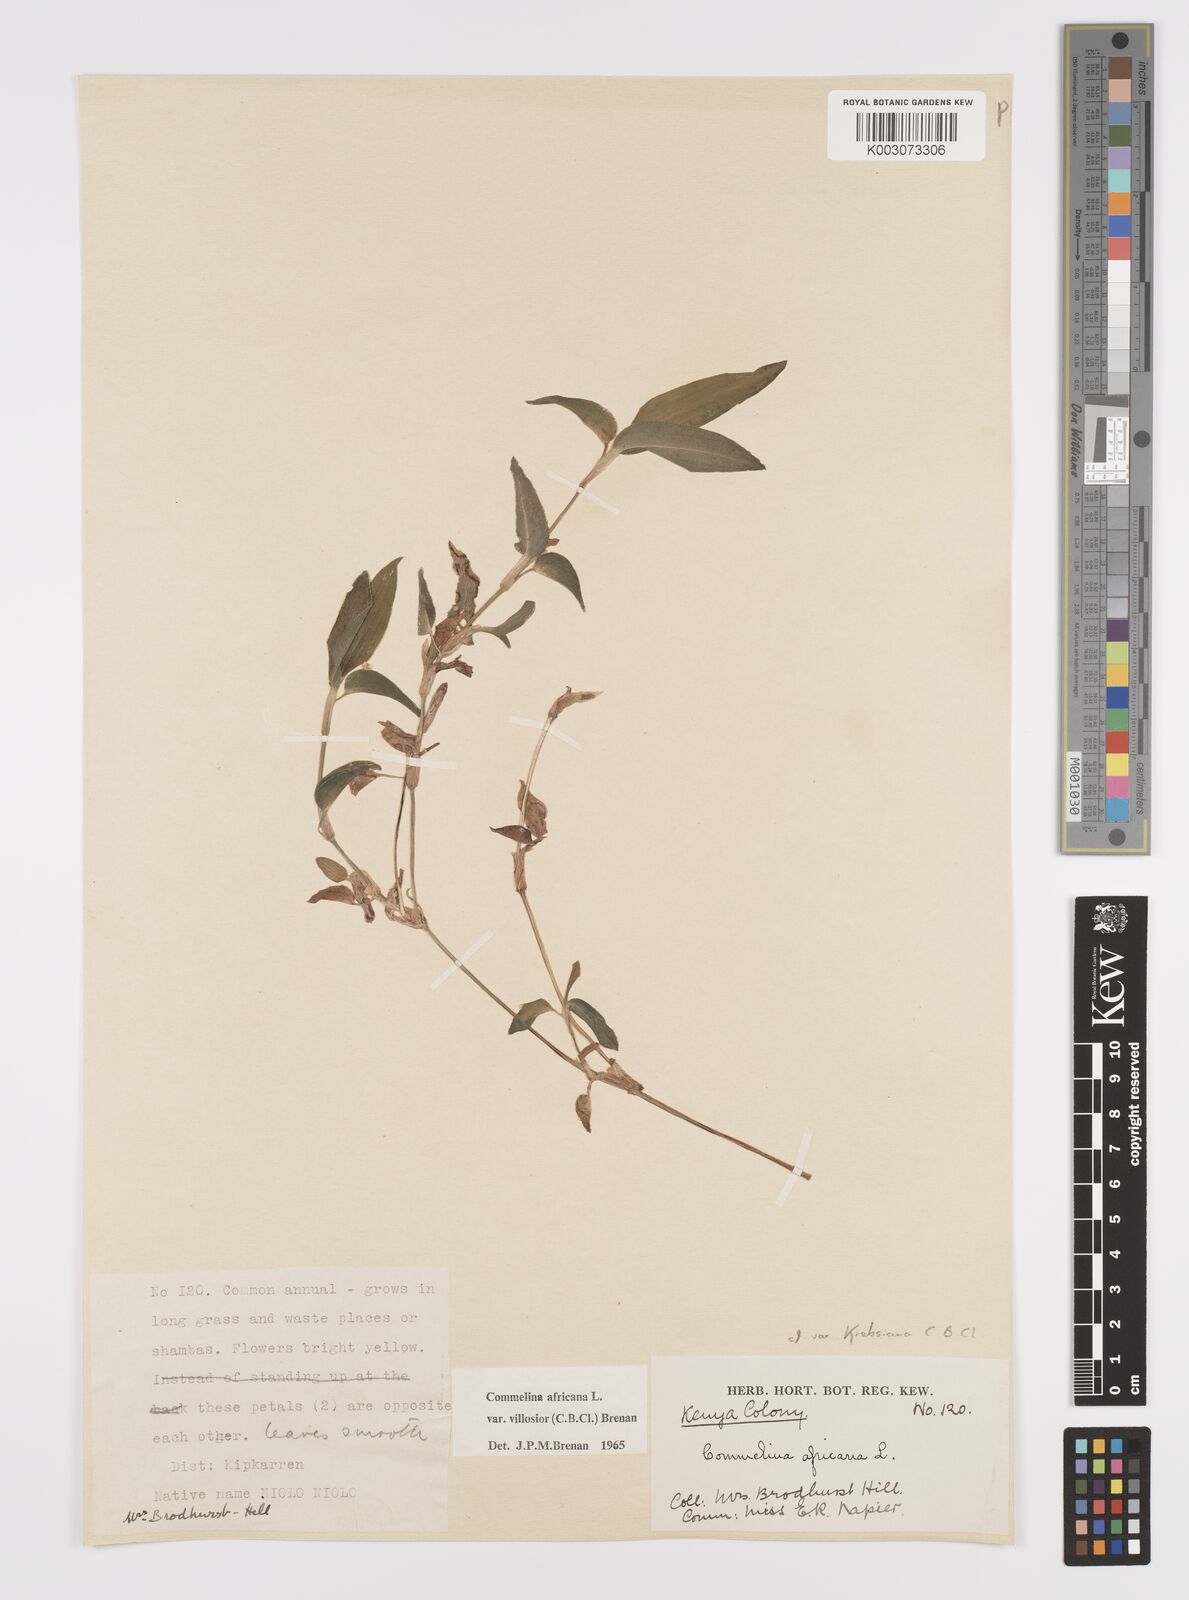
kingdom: Plantae
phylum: Tracheophyta
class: Liliopsida
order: Commelinales
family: Commelinaceae
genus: Commelina
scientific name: Commelina africana
